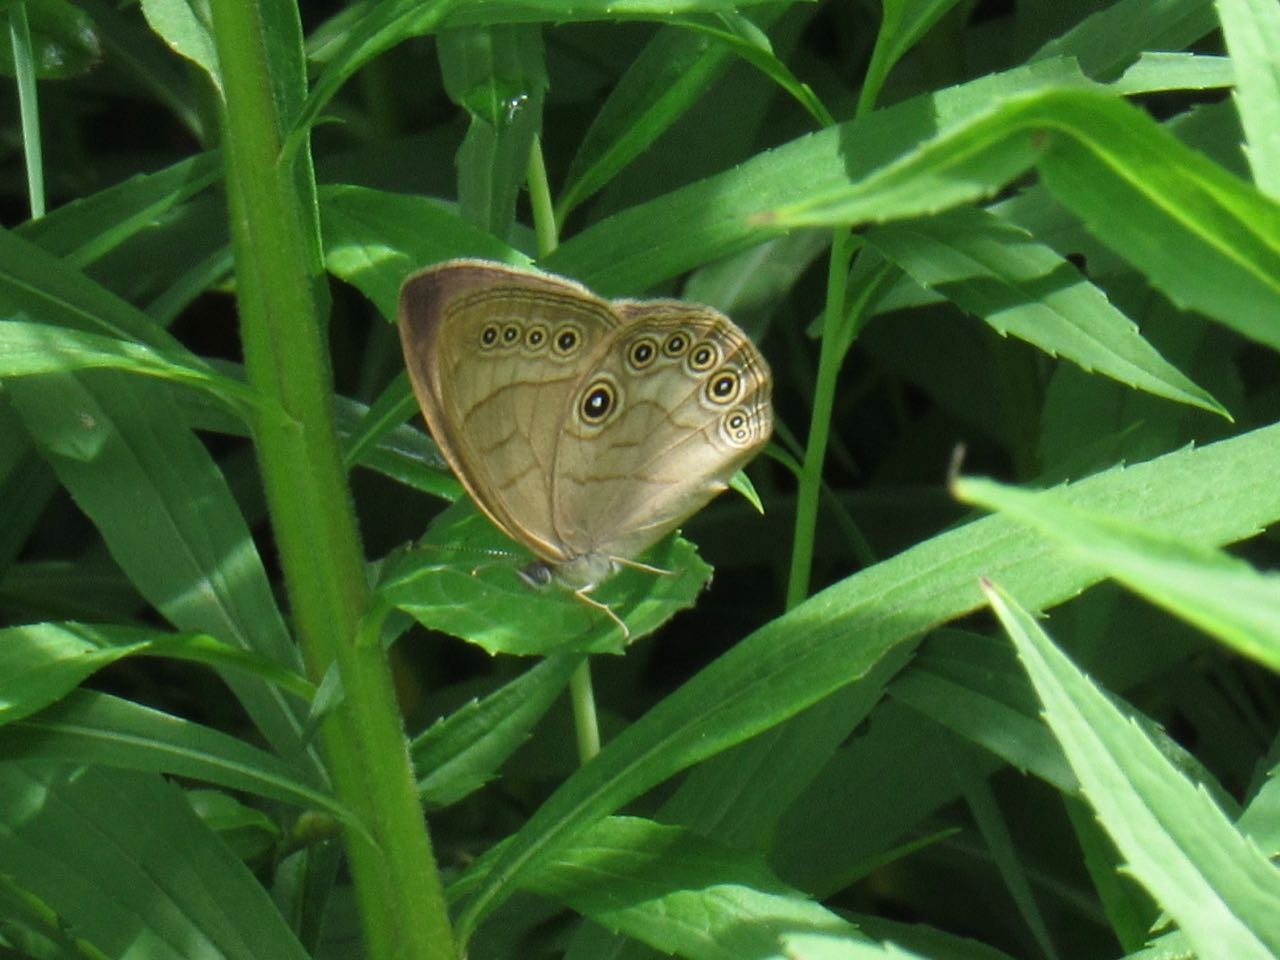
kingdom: Animalia
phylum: Arthropoda
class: Insecta
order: Lepidoptera
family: Nymphalidae
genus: Lethe
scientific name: Lethe eurydice
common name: Appalachian Eyed Brown
